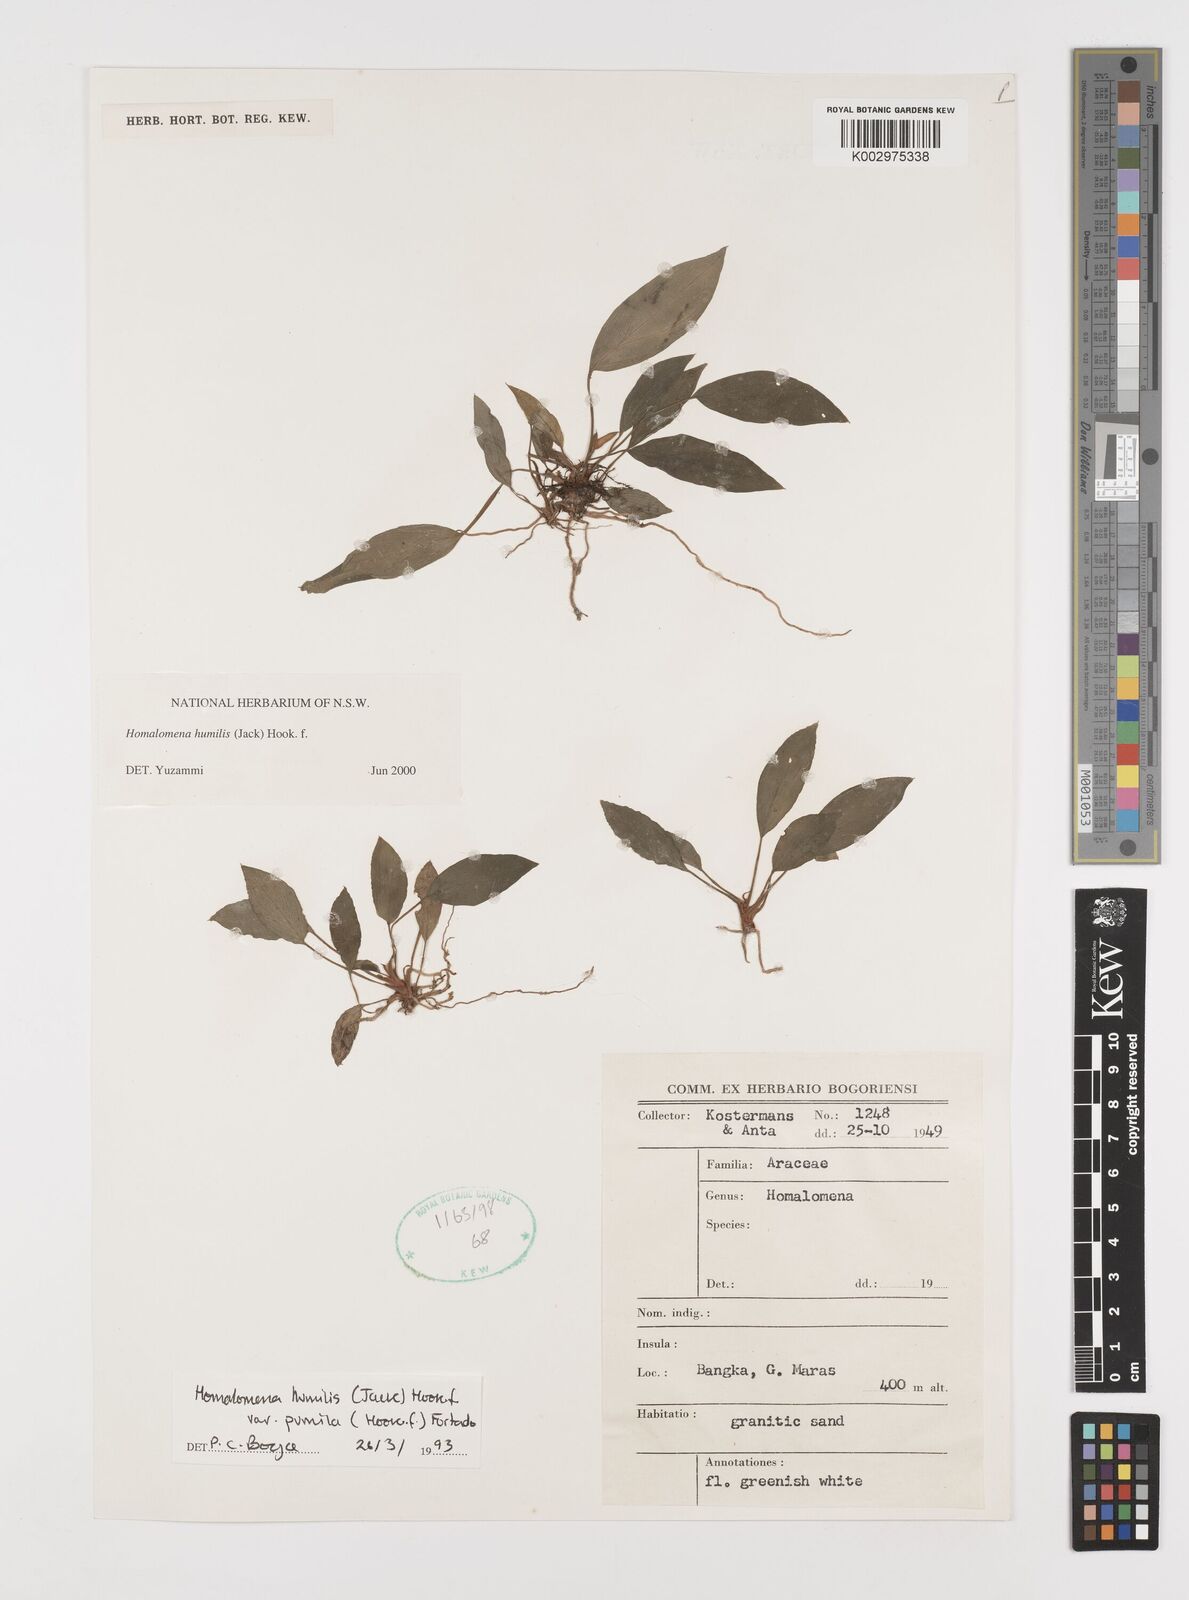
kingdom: Plantae
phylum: Tracheophyta
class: Liliopsida
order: Alismatales
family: Araceae
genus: Homalomena
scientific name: Homalomena humilis
